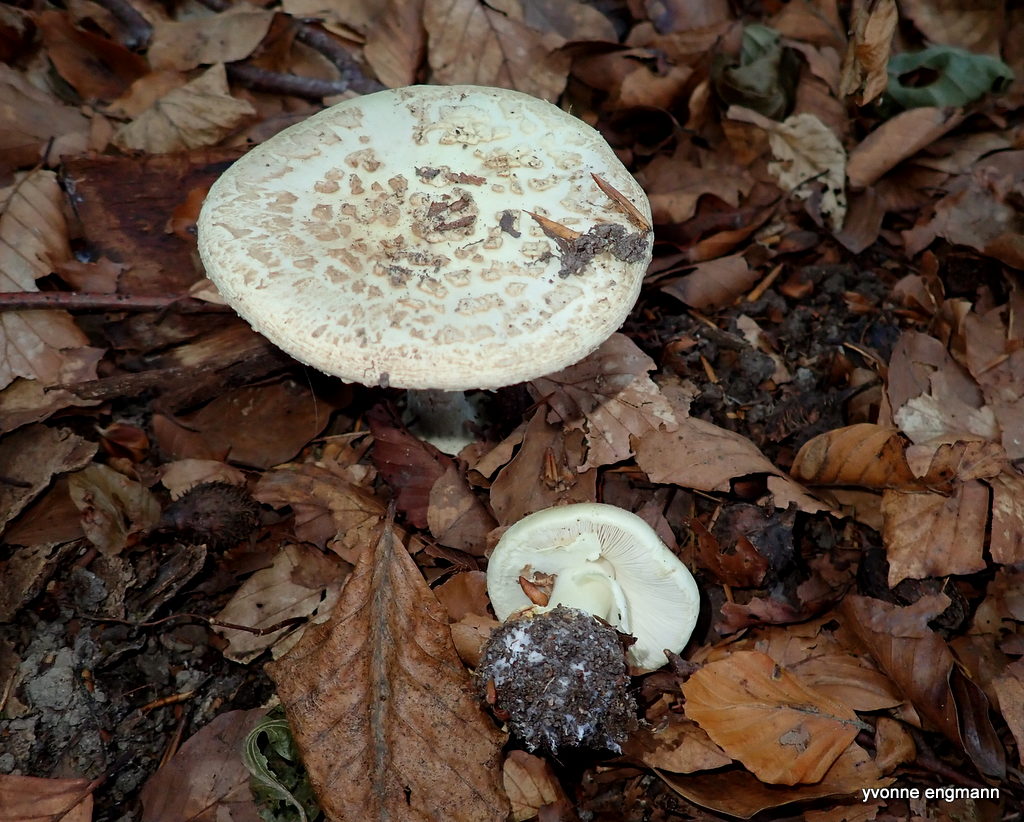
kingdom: Fungi
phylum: Basidiomycota
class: Agaricomycetes
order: Agaricales
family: Amanitaceae
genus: Amanita
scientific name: Amanita citrina
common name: kugleknoldet fluesvamp
